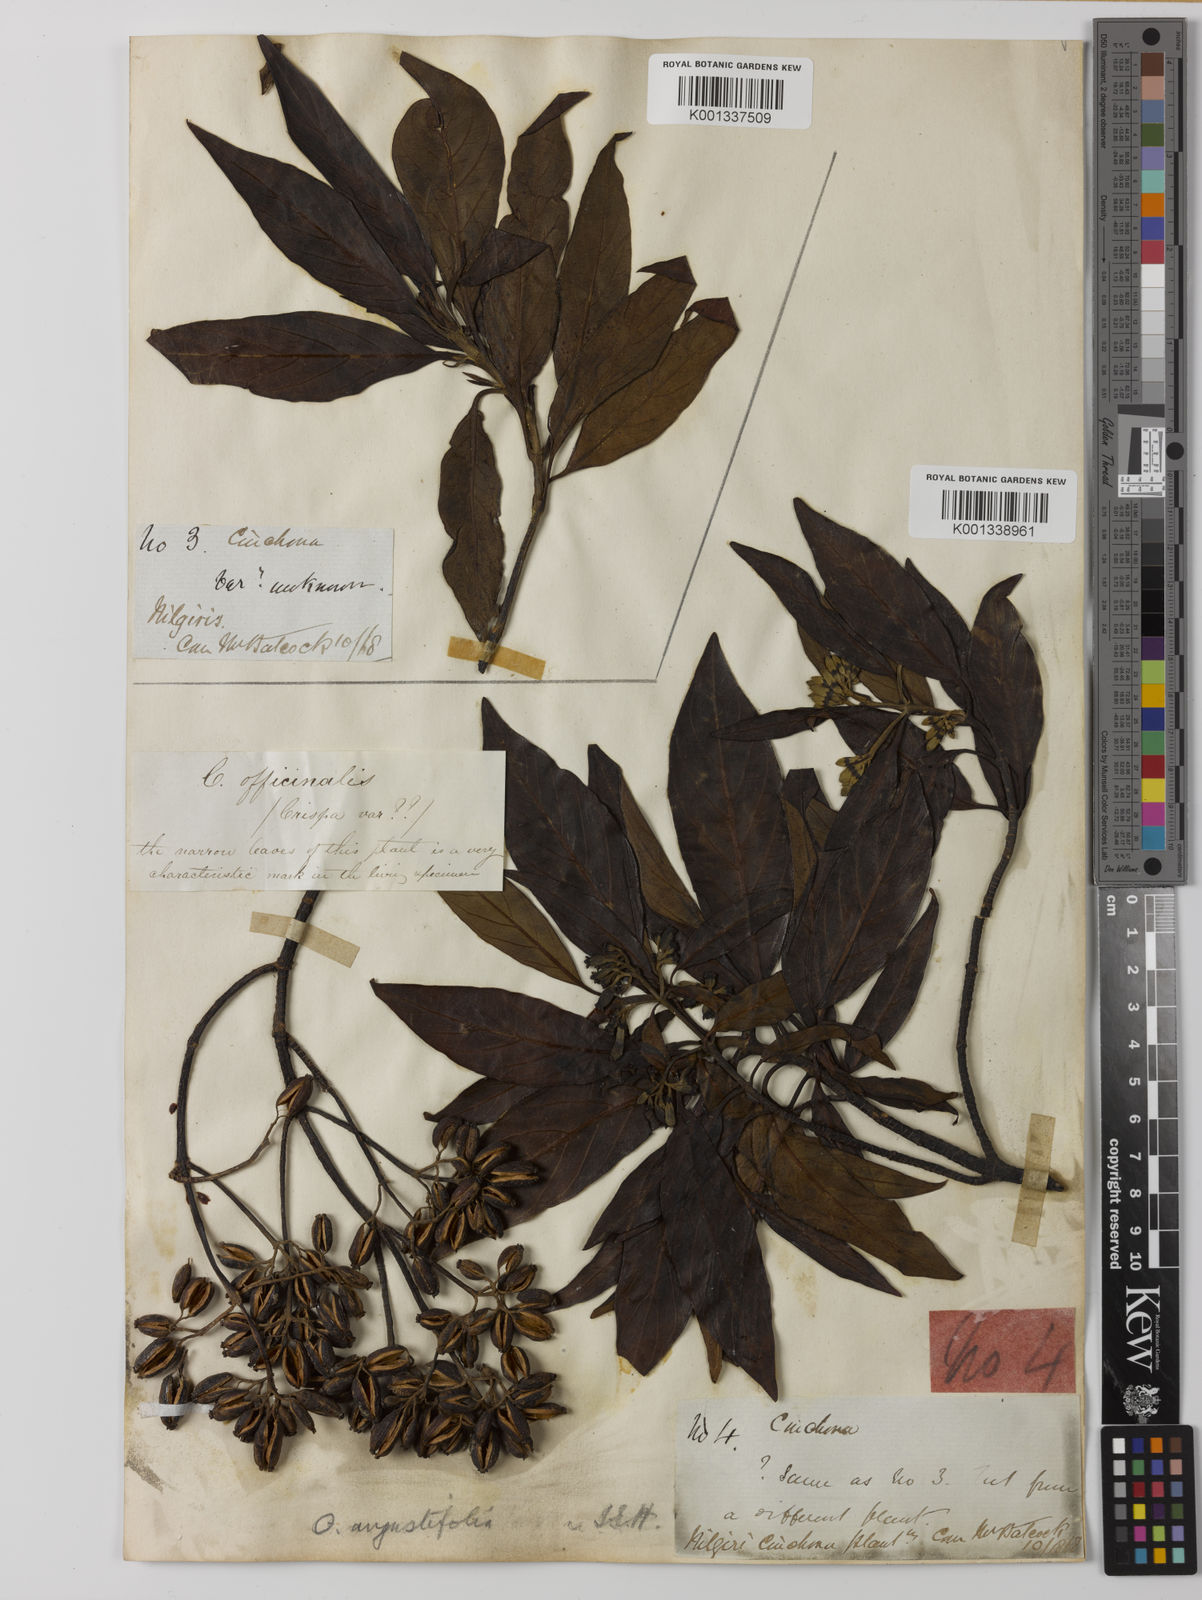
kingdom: Plantae
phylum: Tracheophyta
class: Magnoliopsida
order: Gentianales
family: Rubiaceae
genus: Cinchona
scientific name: Cinchona officinalis
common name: Lojabark
